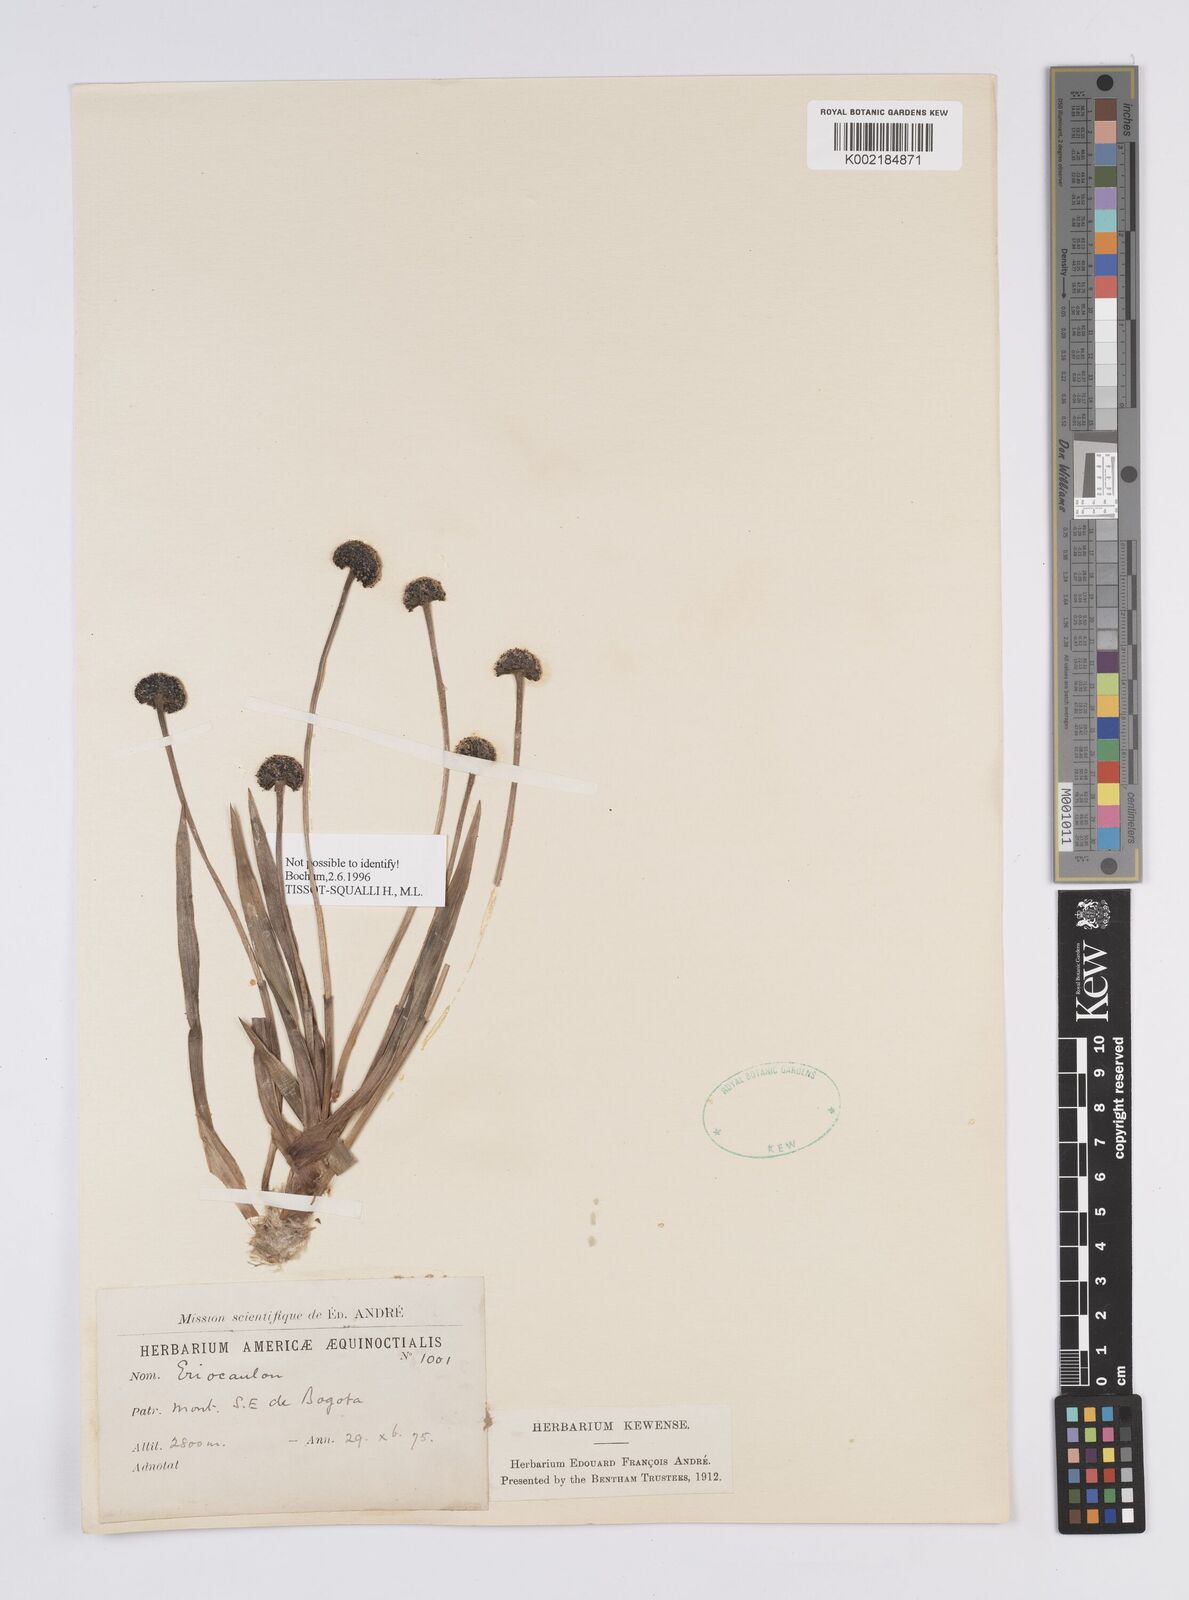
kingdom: Plantae
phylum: Tracheophyta
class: Liliopsida
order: Poales
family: Eriocaulaceae
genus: Eriocaulon
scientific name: Eriocaulon
